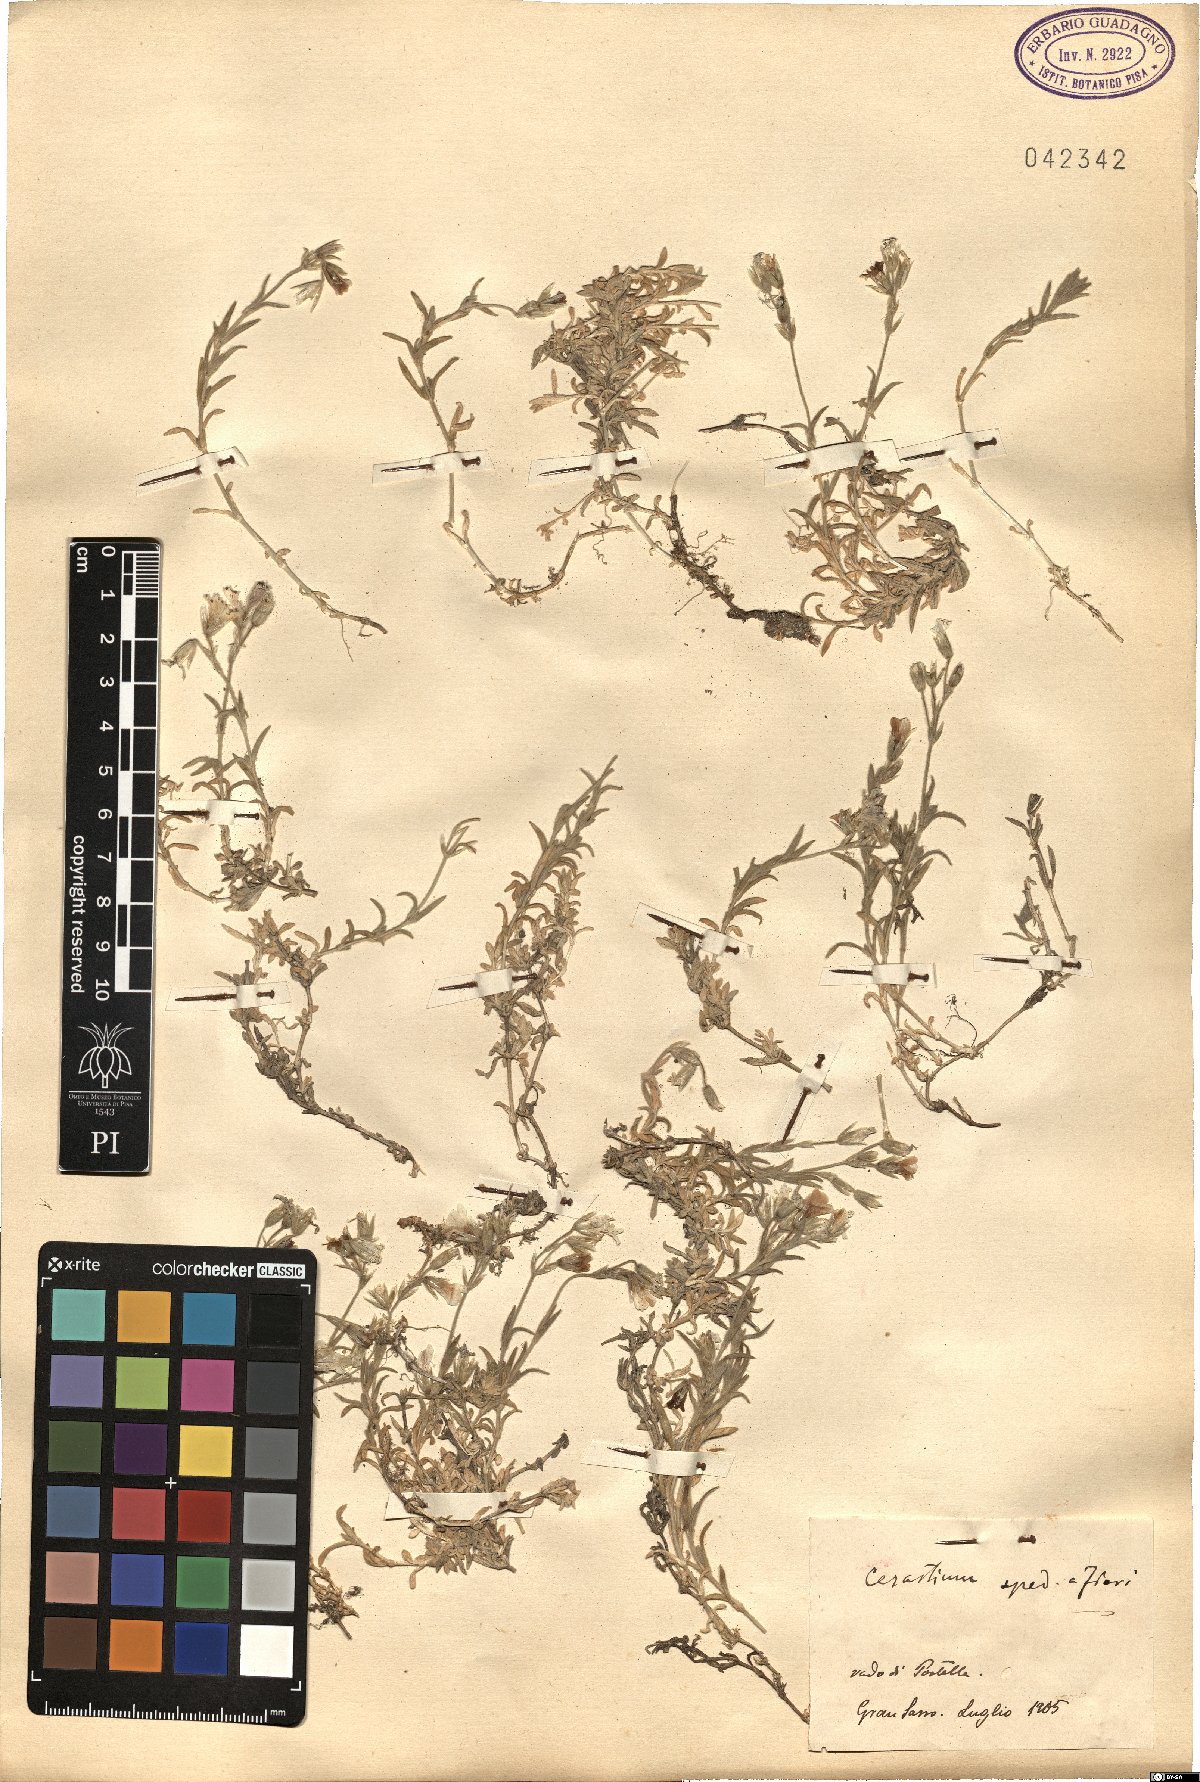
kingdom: Plantae
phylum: Tracheophyta
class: Magnoliopsida
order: Caryophyllales
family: Caryophyllaceae
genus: Cerastium
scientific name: Cerastium
